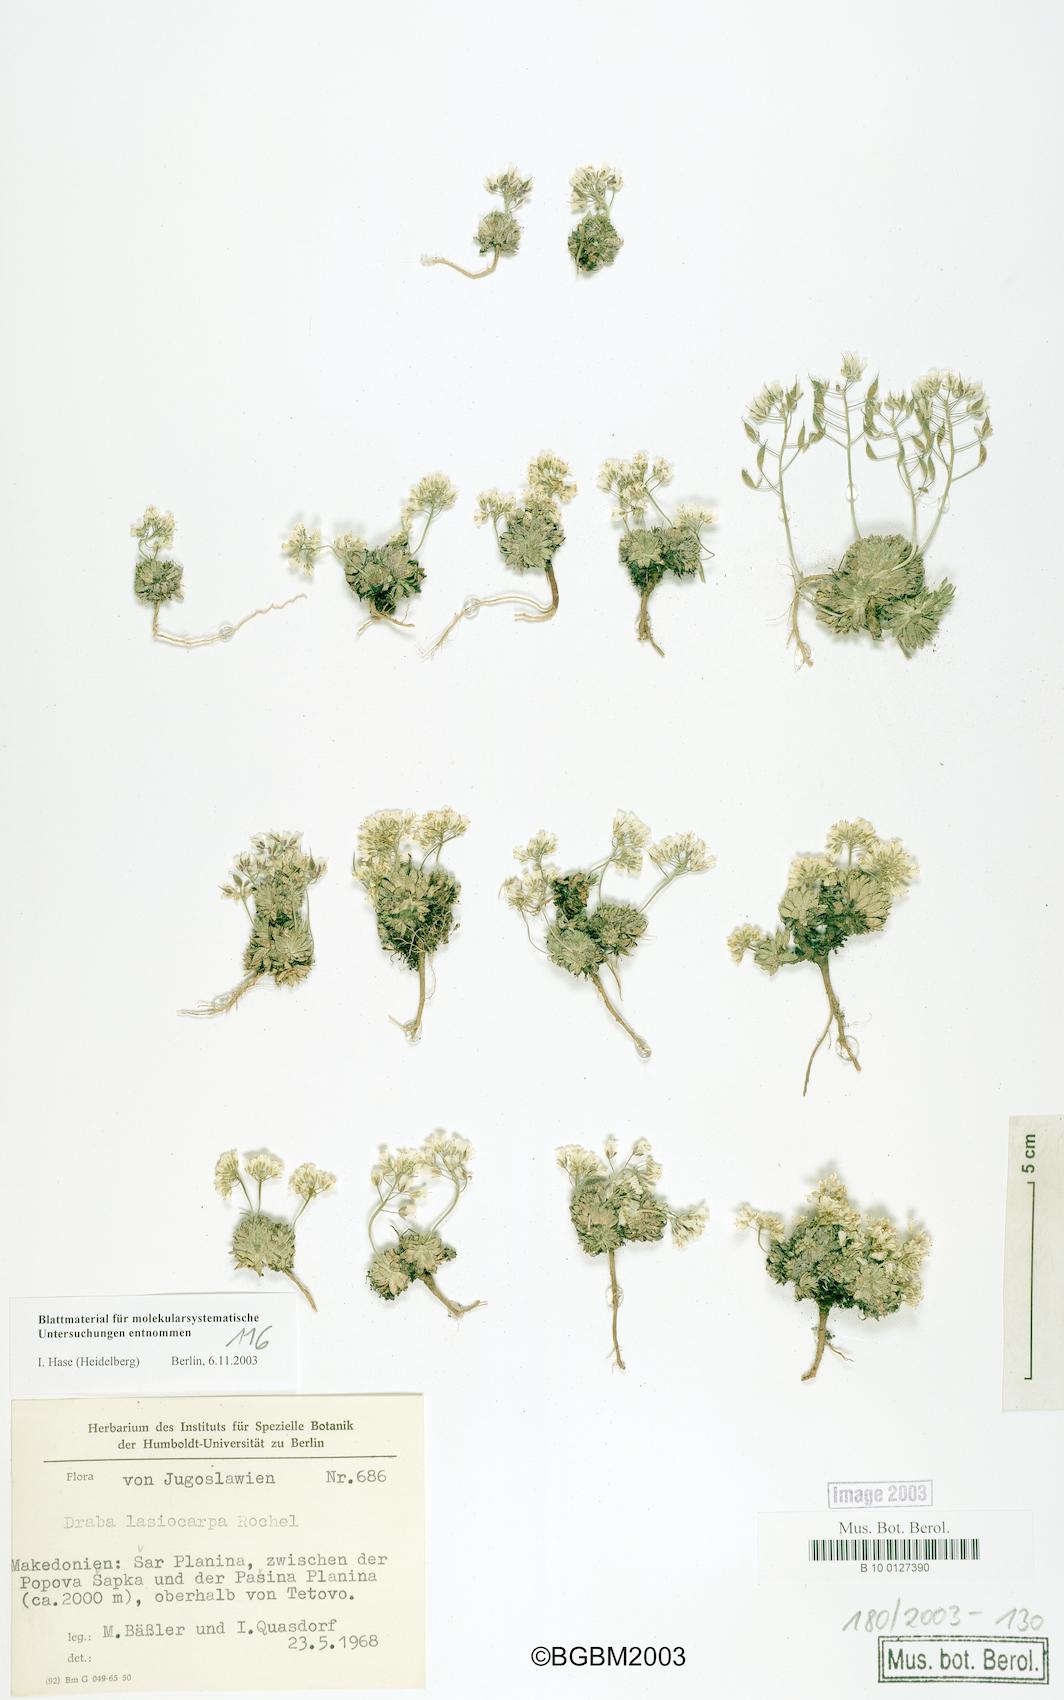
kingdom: Plantae
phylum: Tracheophyta
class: Magnoliopsida
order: Brassicales
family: Brassicaceae
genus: Draba
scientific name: Draba lasiocarpa
